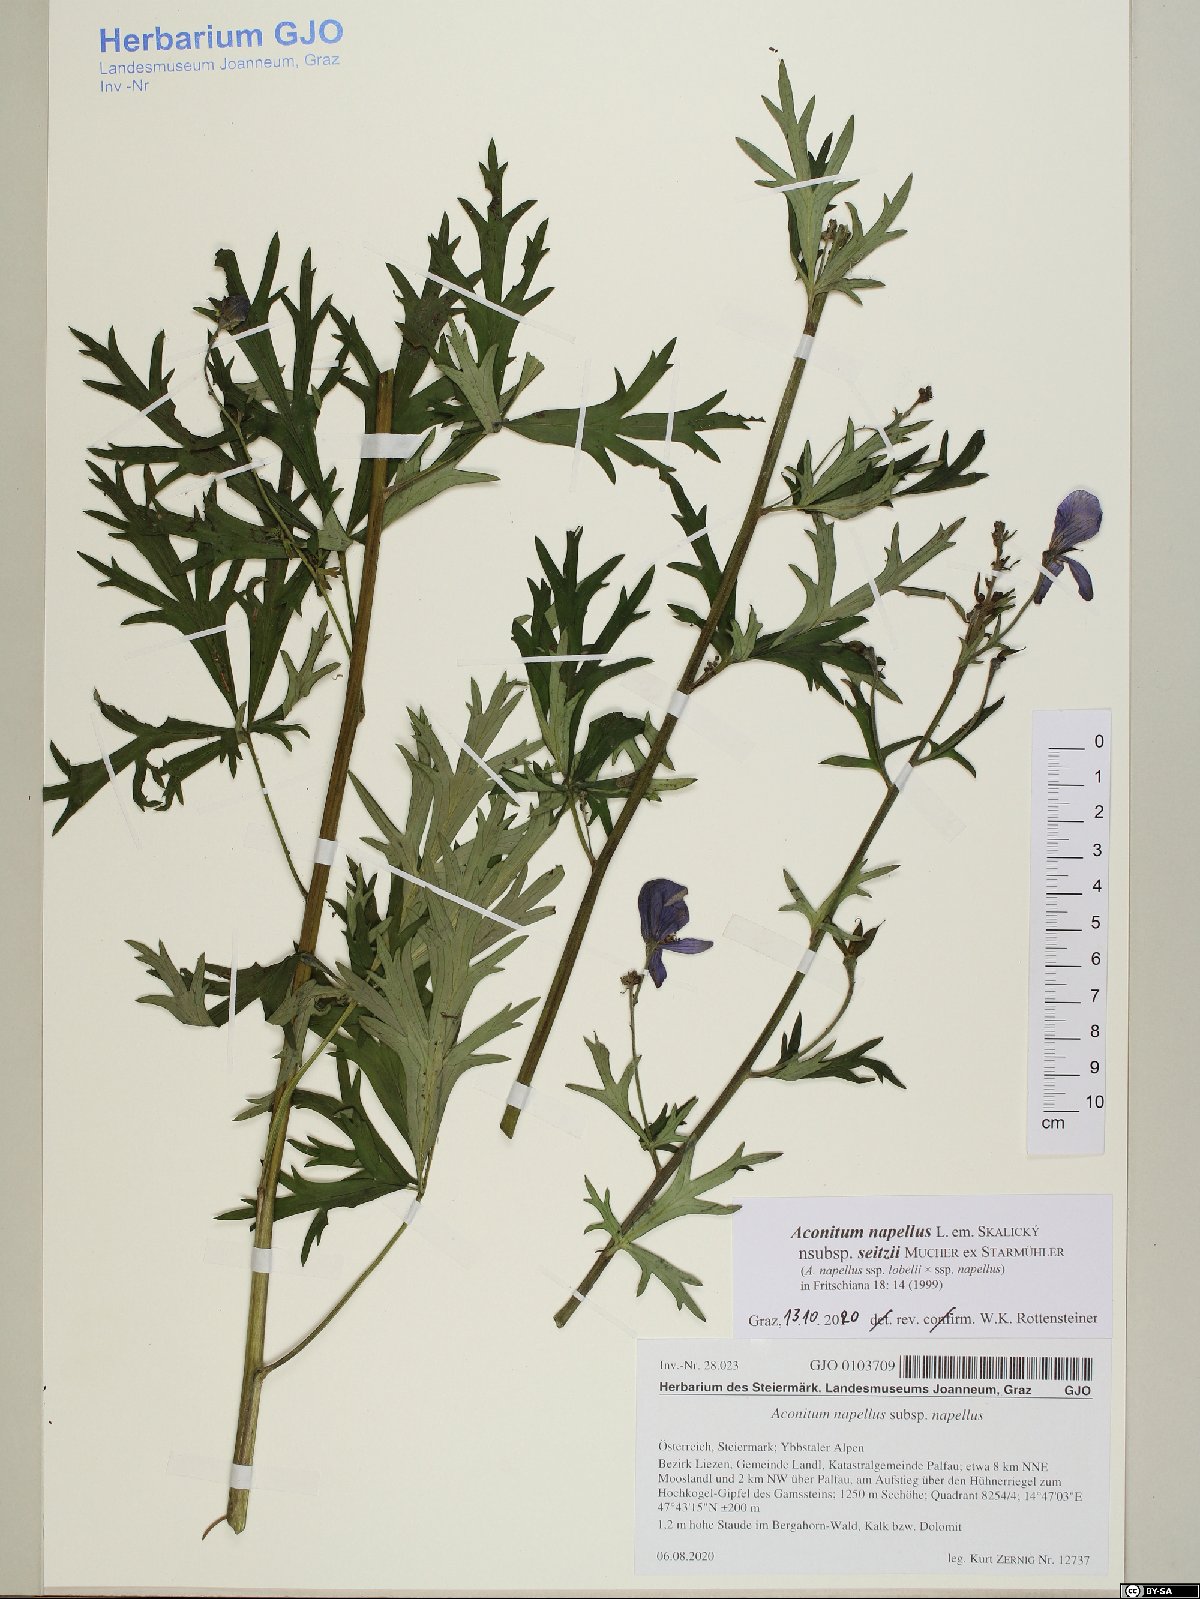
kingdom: Plantae
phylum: Tracheophyta
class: Magnoliopsida
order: Ranunculales
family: Ranunculaceae
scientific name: Ranunculaceae
